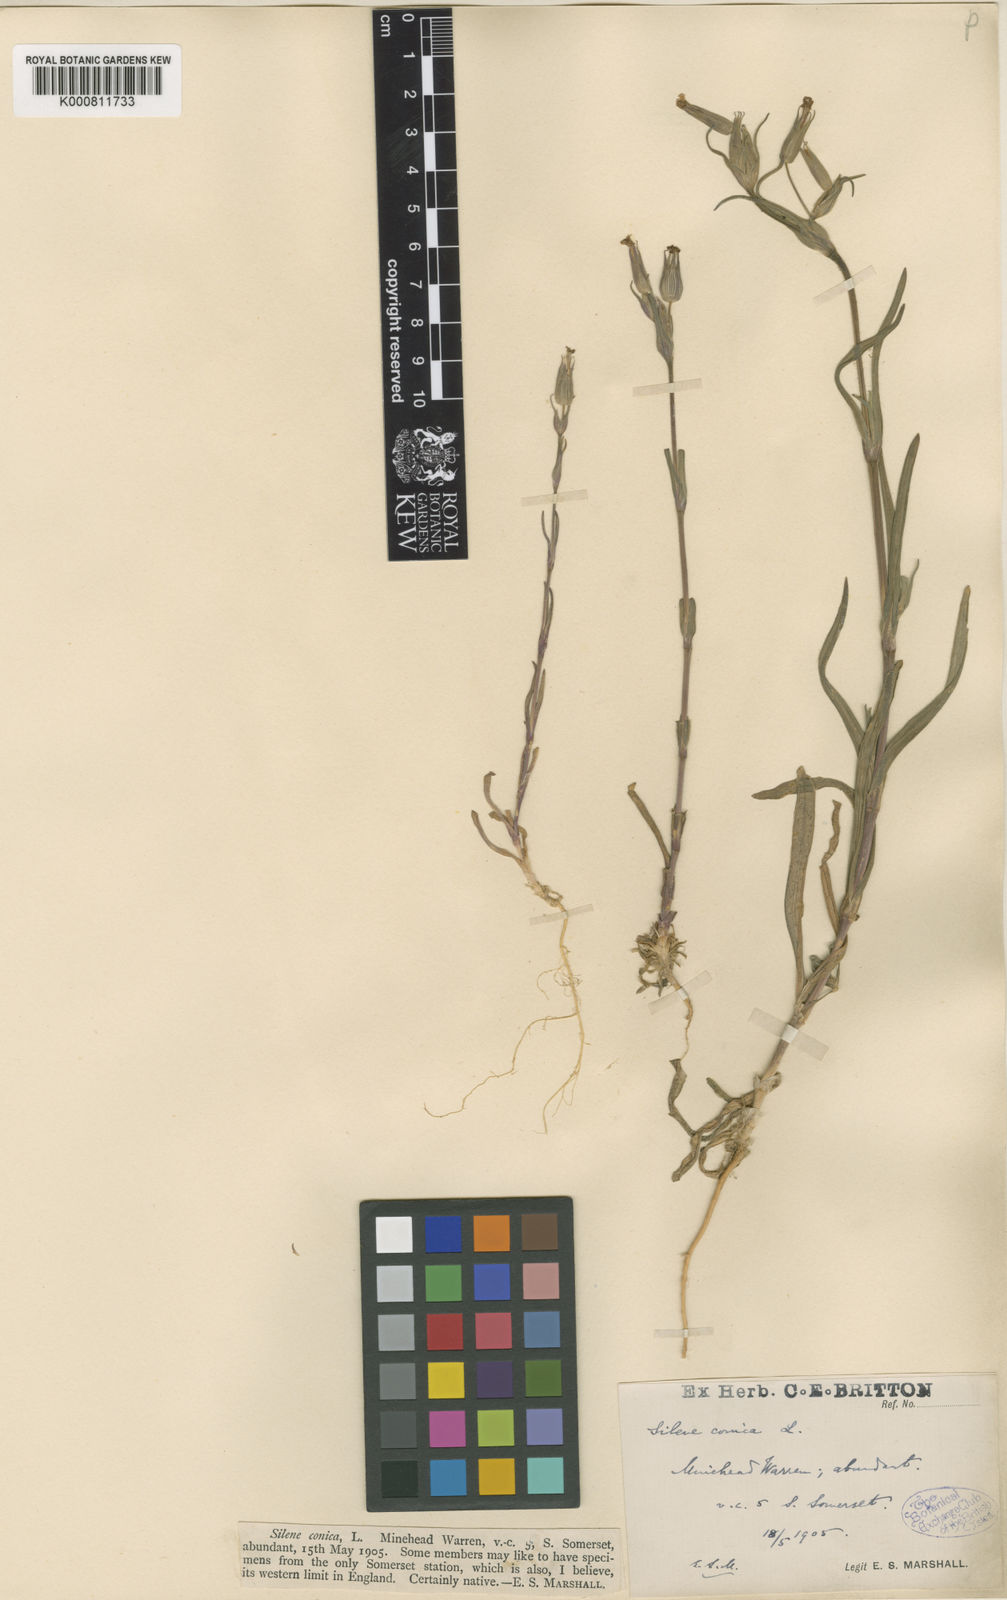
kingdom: Plantae
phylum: Tracheophyta
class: Magnoliopsida
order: Caryophyllales
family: Caryophyllaceae
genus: Silene
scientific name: Silene conica
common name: Sand catchfly
